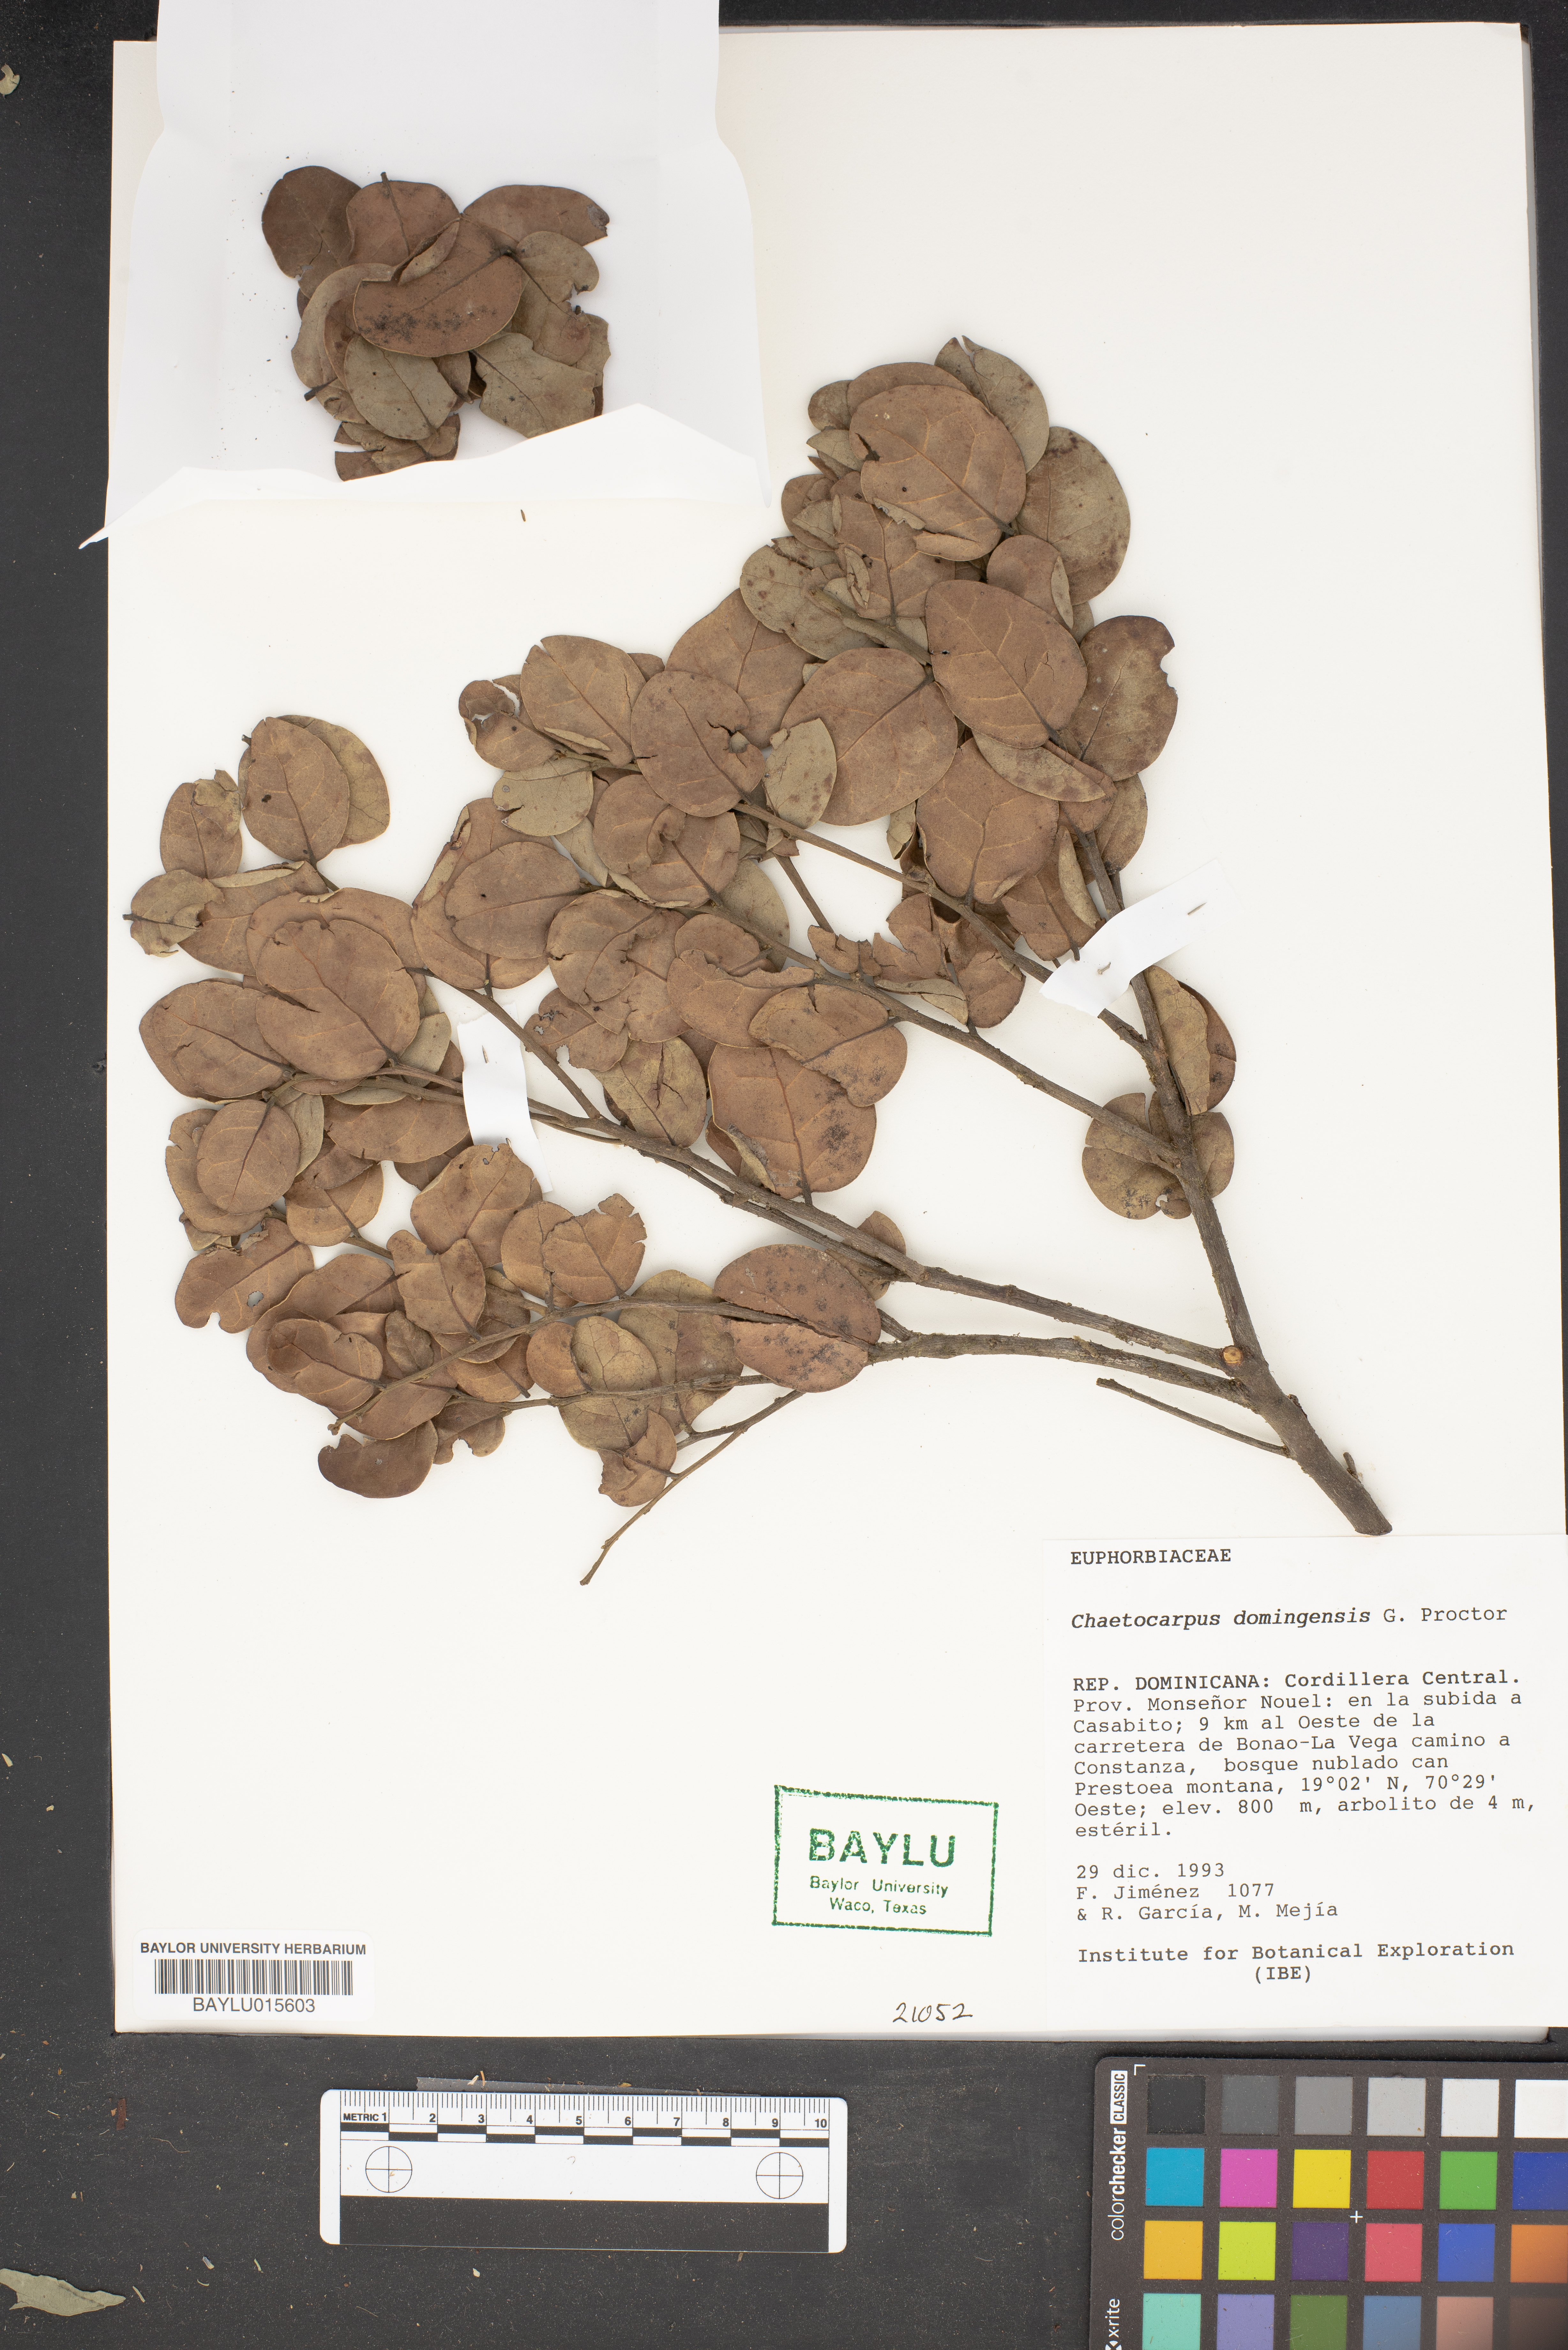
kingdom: Plantae
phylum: Tracheophyta
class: Magnoliopsida
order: Malpighiales
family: Peraceae
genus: Chaetocarpus
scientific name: Chaetocarpus cordifolius
